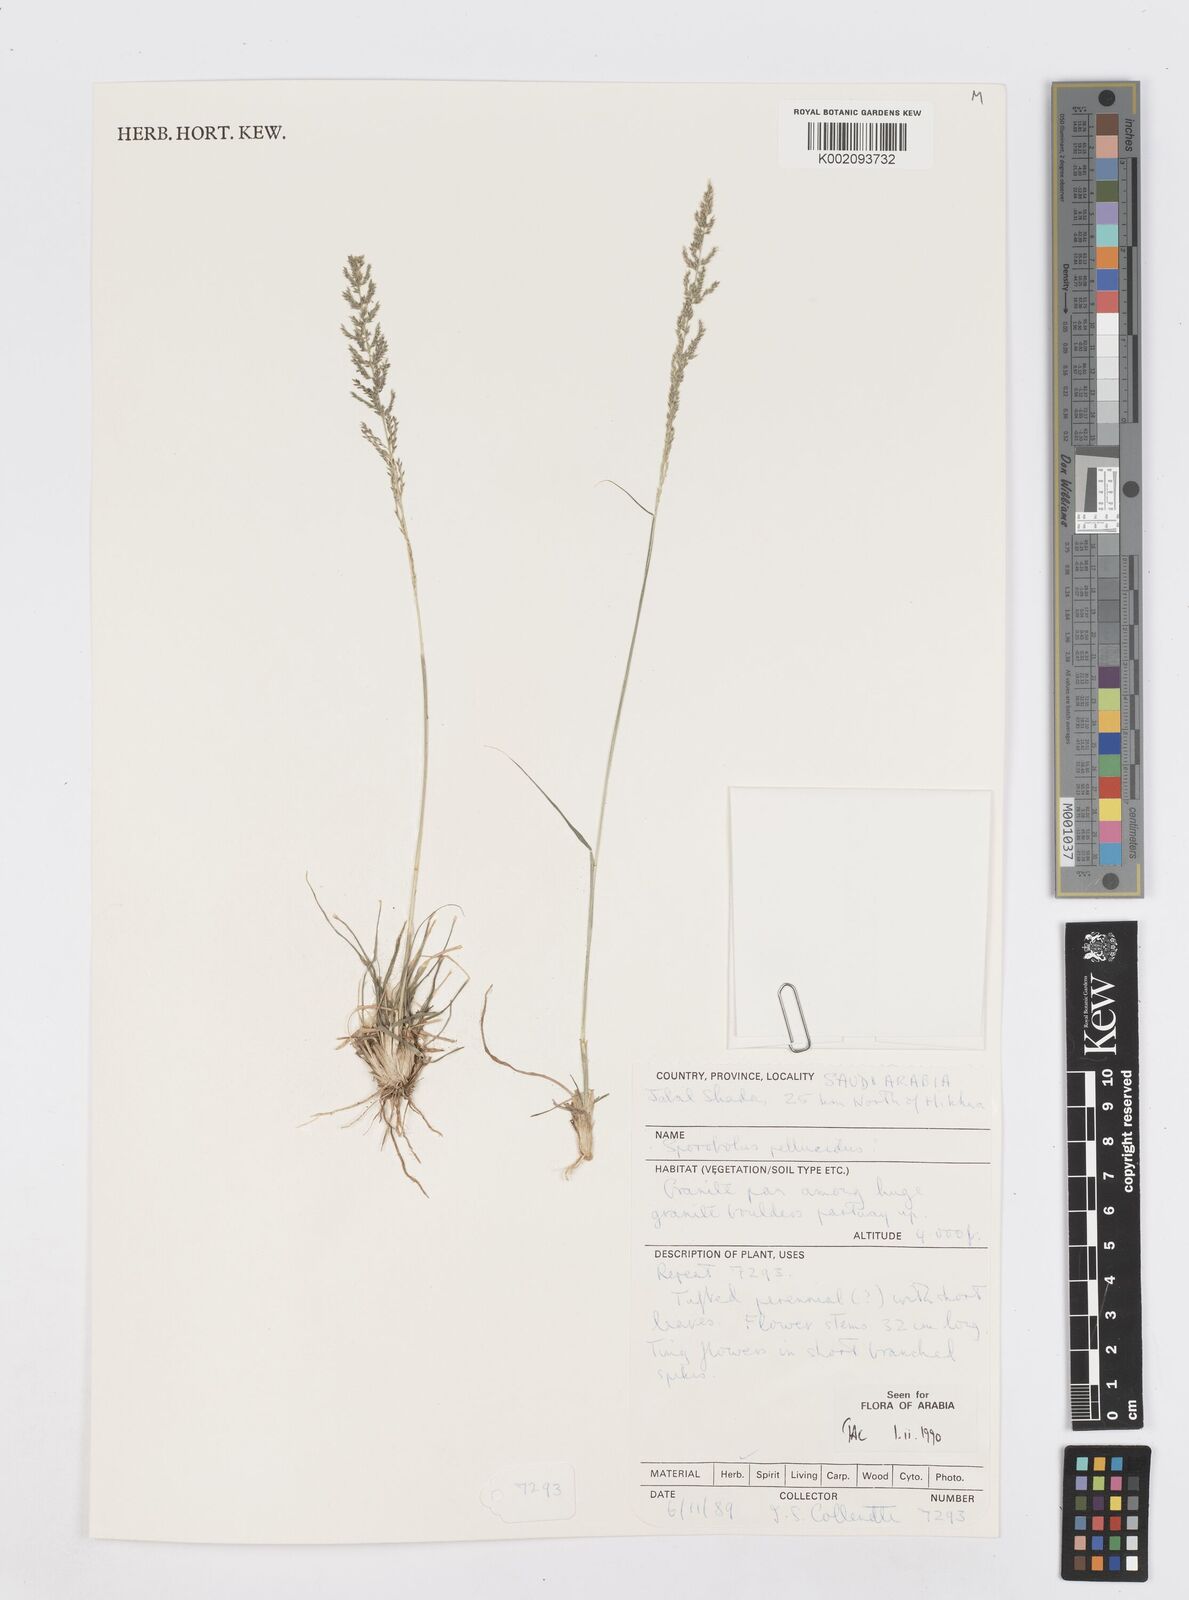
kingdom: Plantae
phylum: Tracheophyta
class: Liliopsida
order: Poales
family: Poaceae
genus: Sporobolus
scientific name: Sporobolus pellucidus
